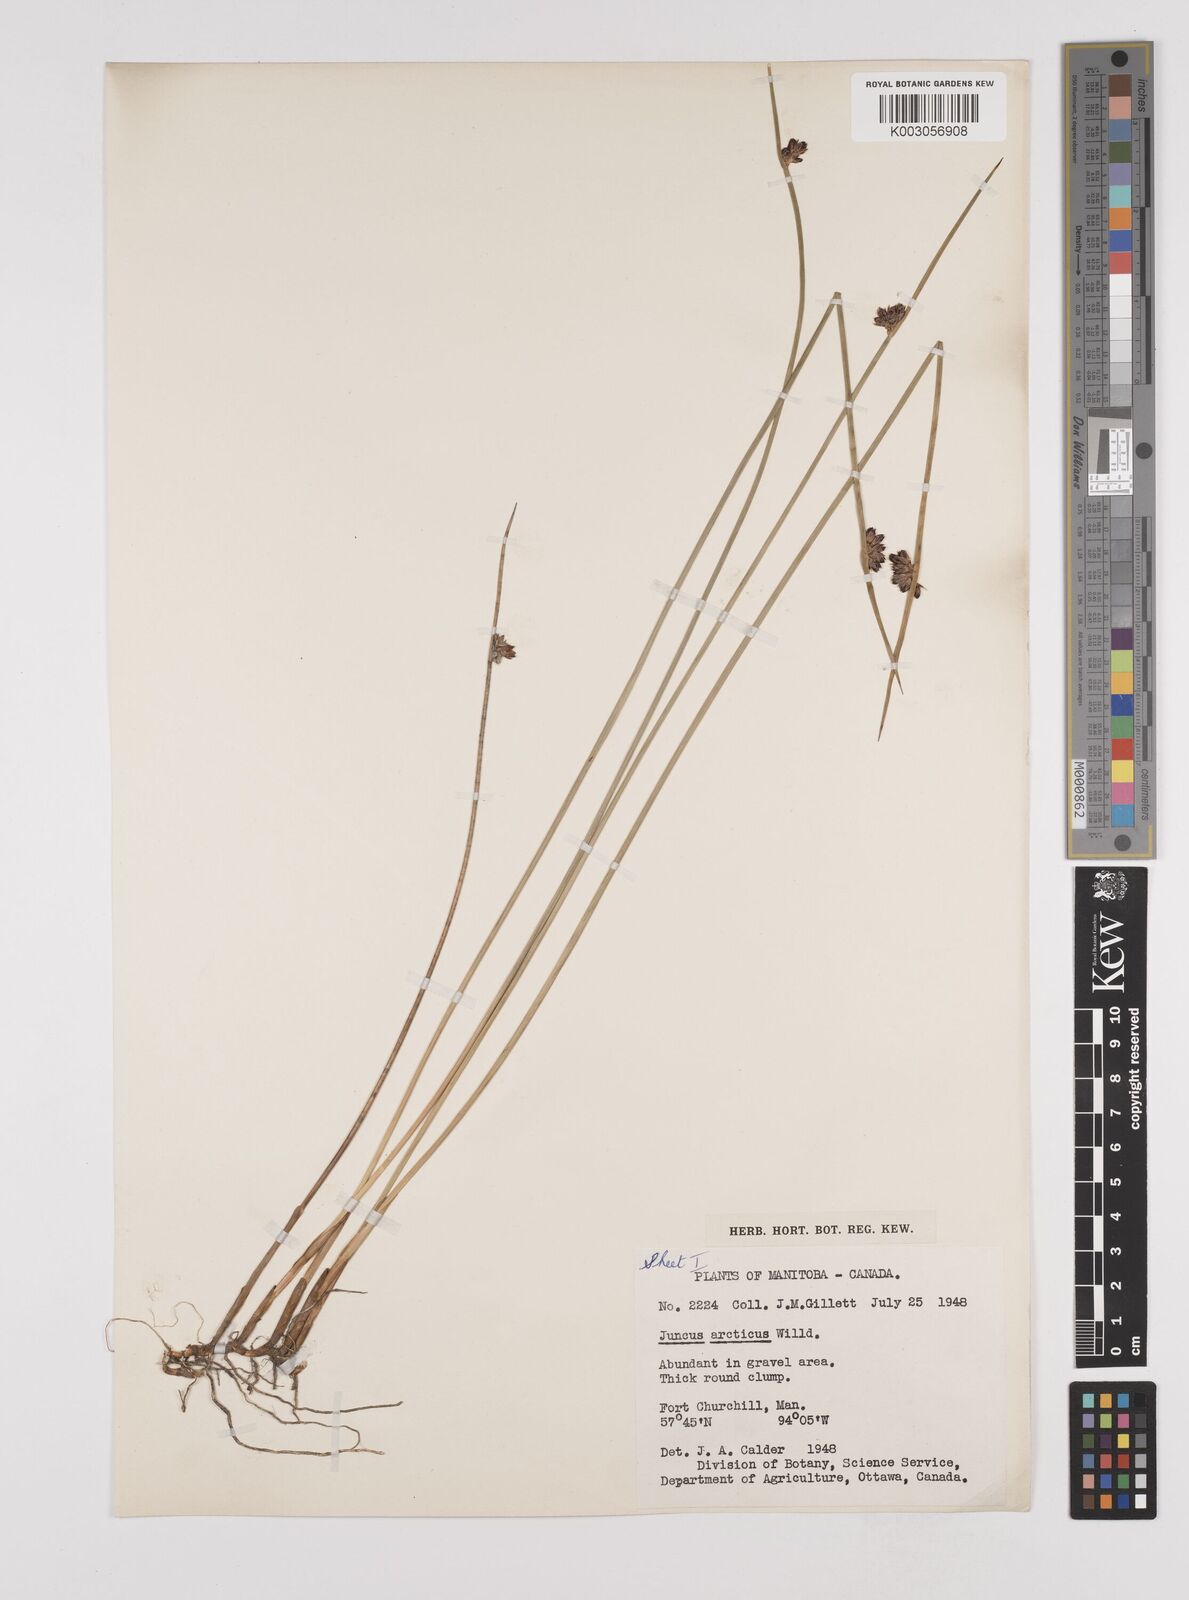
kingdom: Plantae
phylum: Tracheophyta
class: Liliopsida
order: Poales
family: Juncaceae
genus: Juncus
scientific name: Juncus arcticus
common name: Arctic rush
